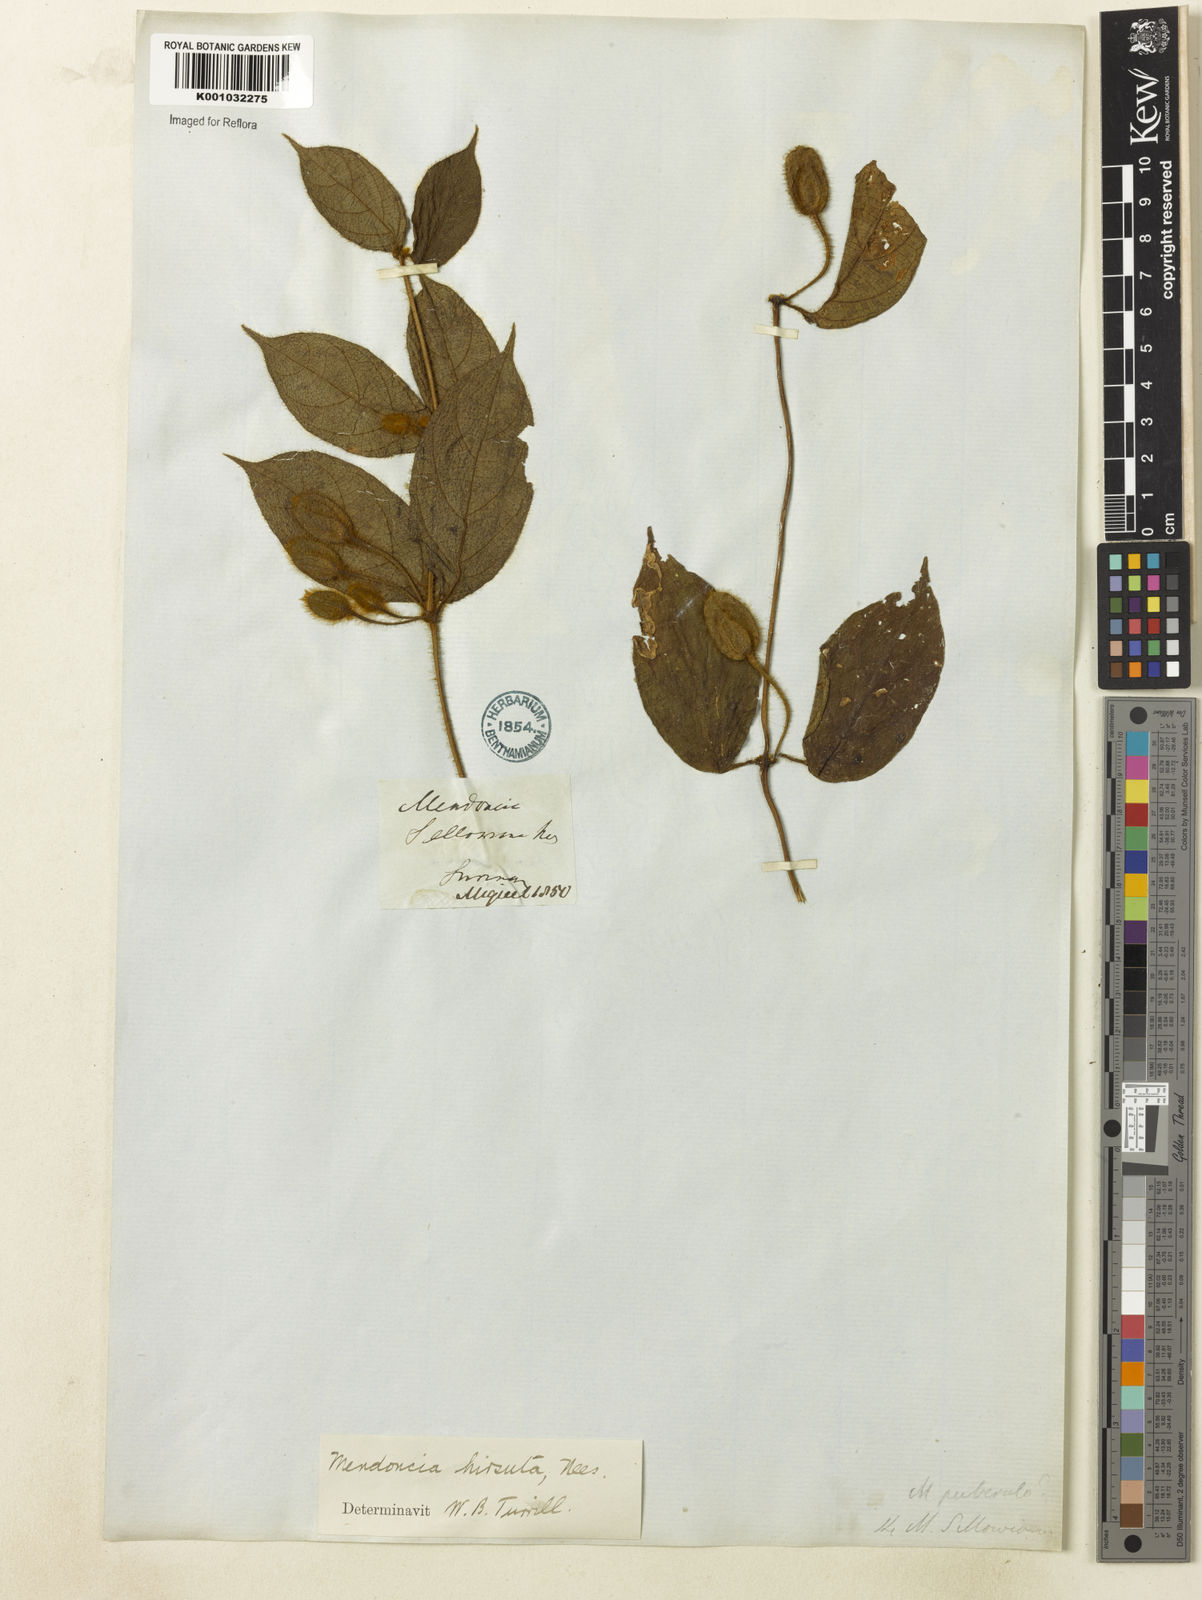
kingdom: Plantae
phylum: Tracheophyta
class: Magnoliopsida
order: Lamiales
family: Acanthaceae
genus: Mendoncia
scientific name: Mendoncia
